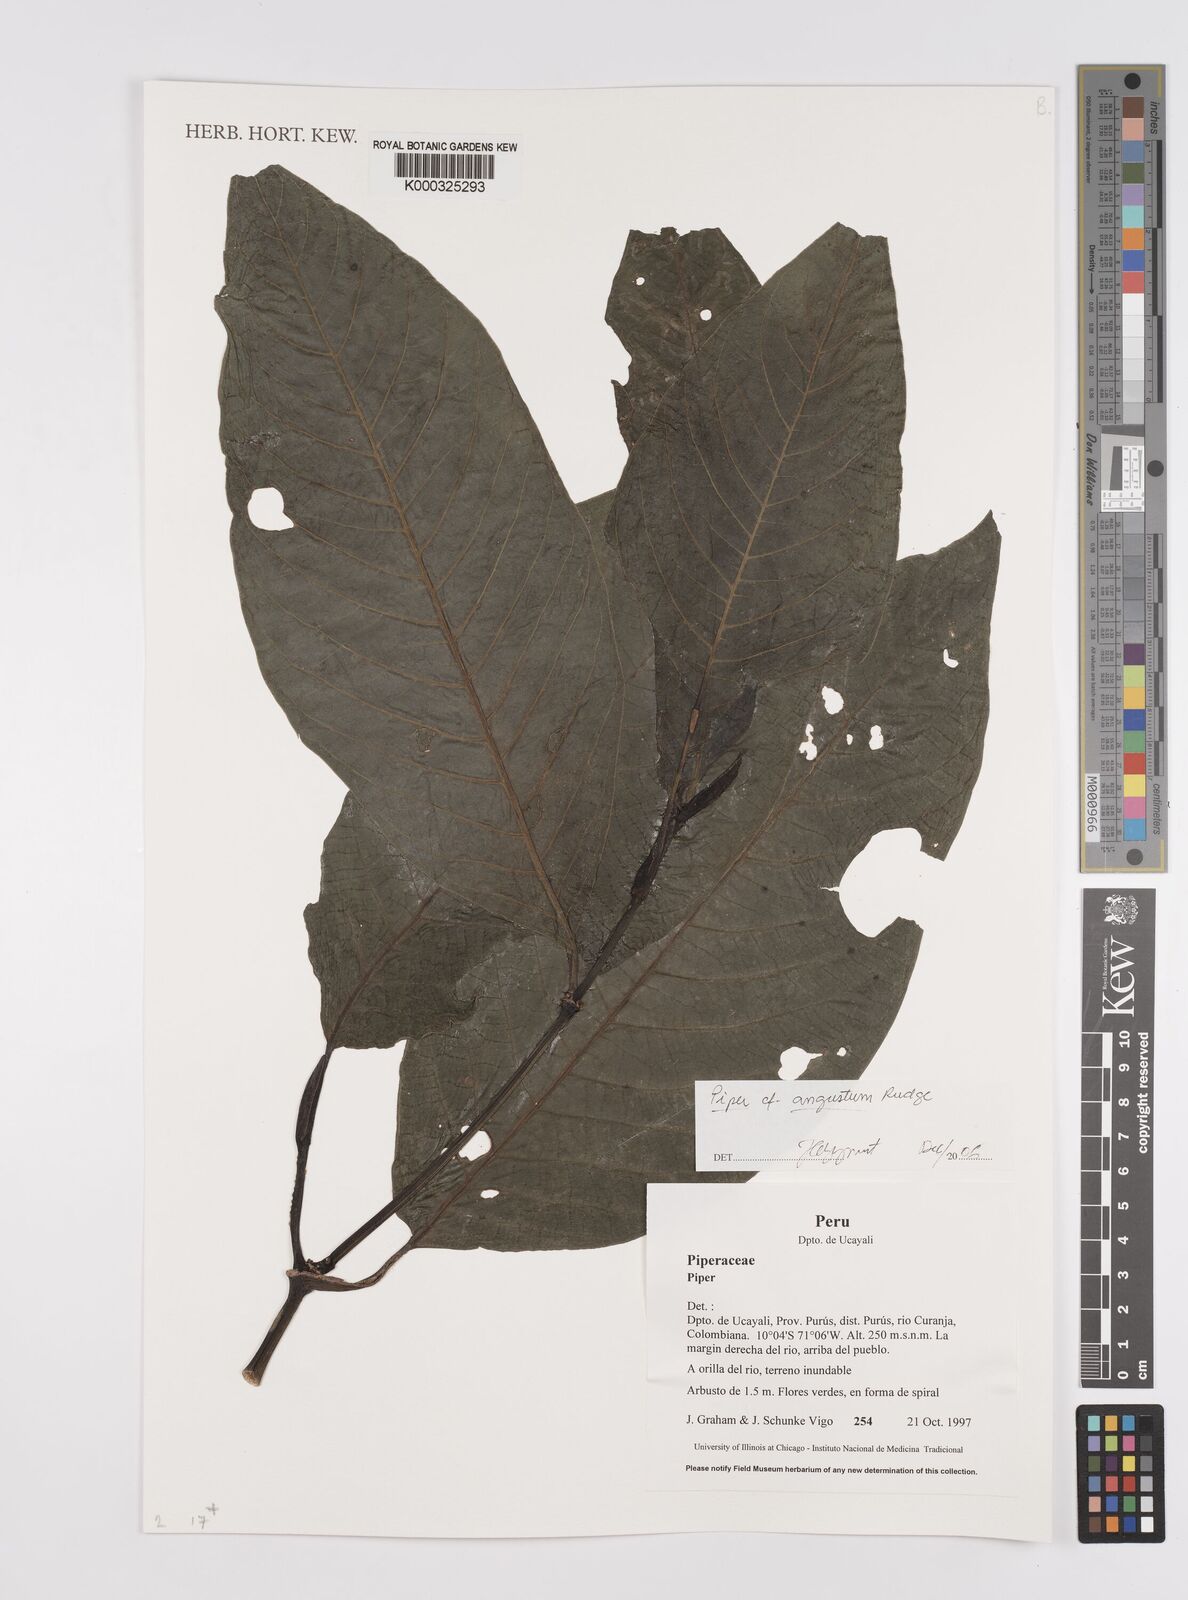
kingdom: Plantae
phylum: Tracheophyta
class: Magnoliopsida
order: Piperales
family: Piperaceae
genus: Piper
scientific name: Piper
